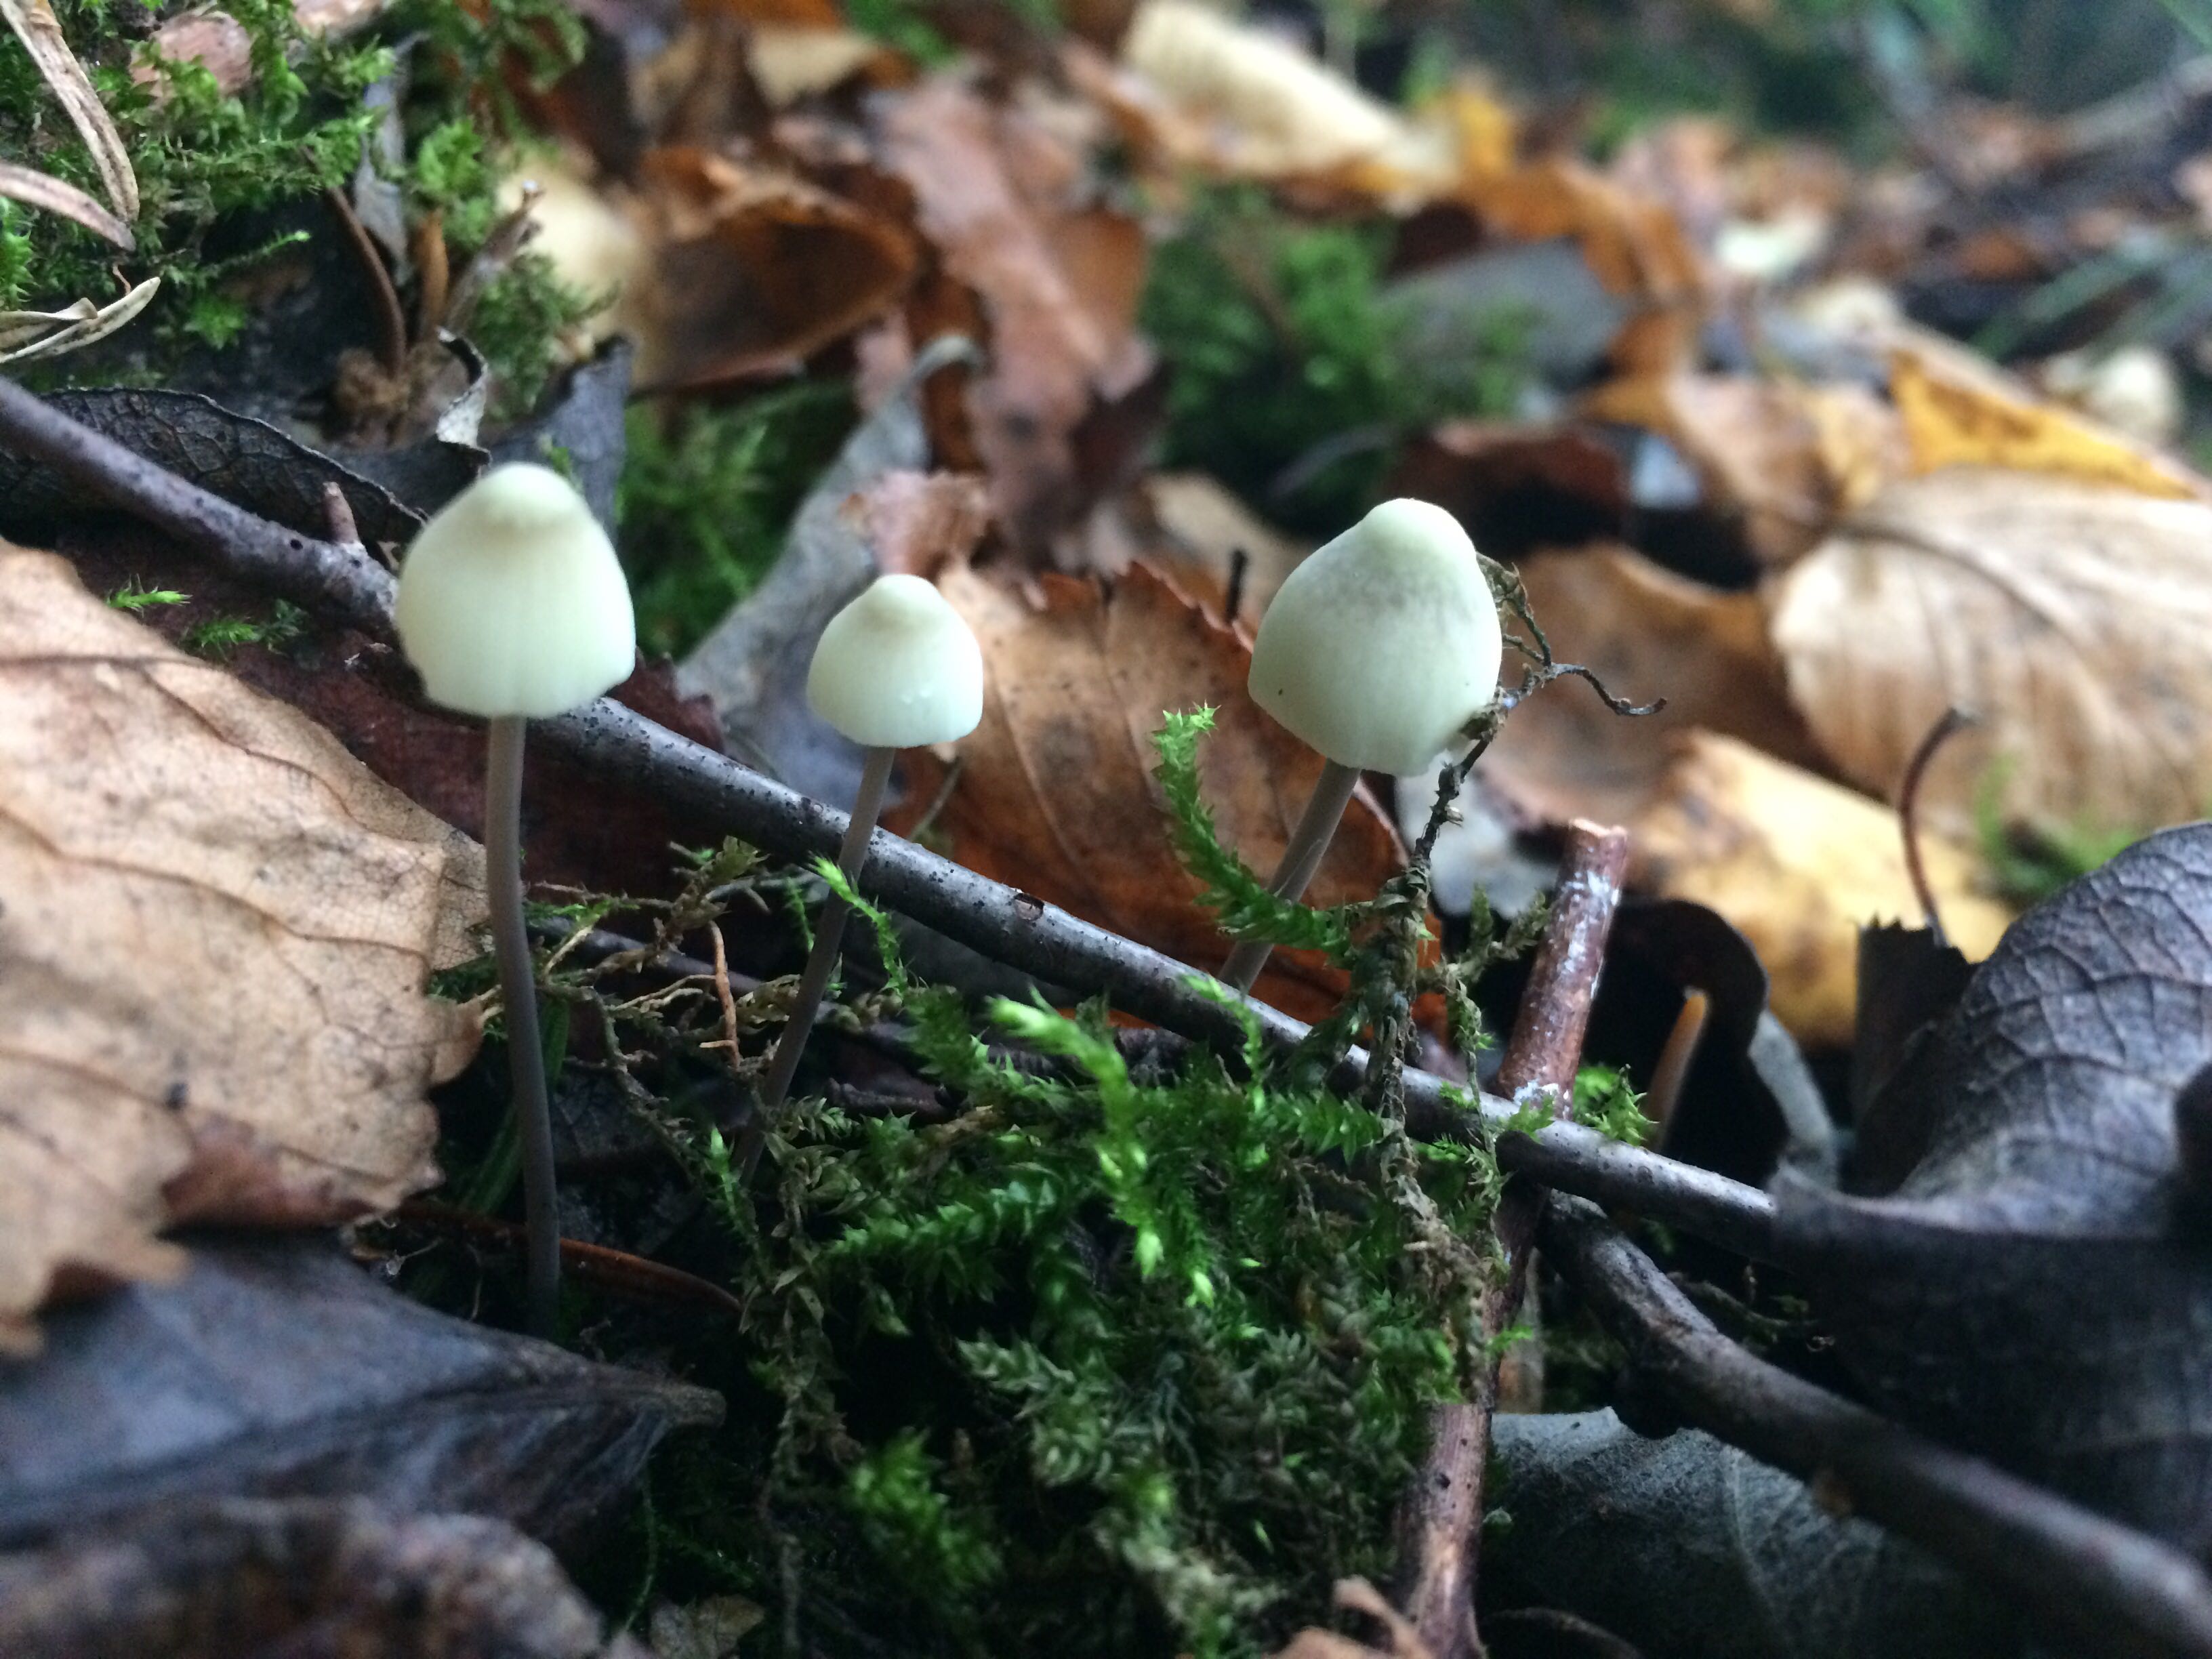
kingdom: Fungi
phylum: Basidiomycota
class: Agaricomycetes
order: Agaricales
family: Mycenaceae
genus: Mycena
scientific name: Mycena arcangeliana
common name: oliven-huesvamp
